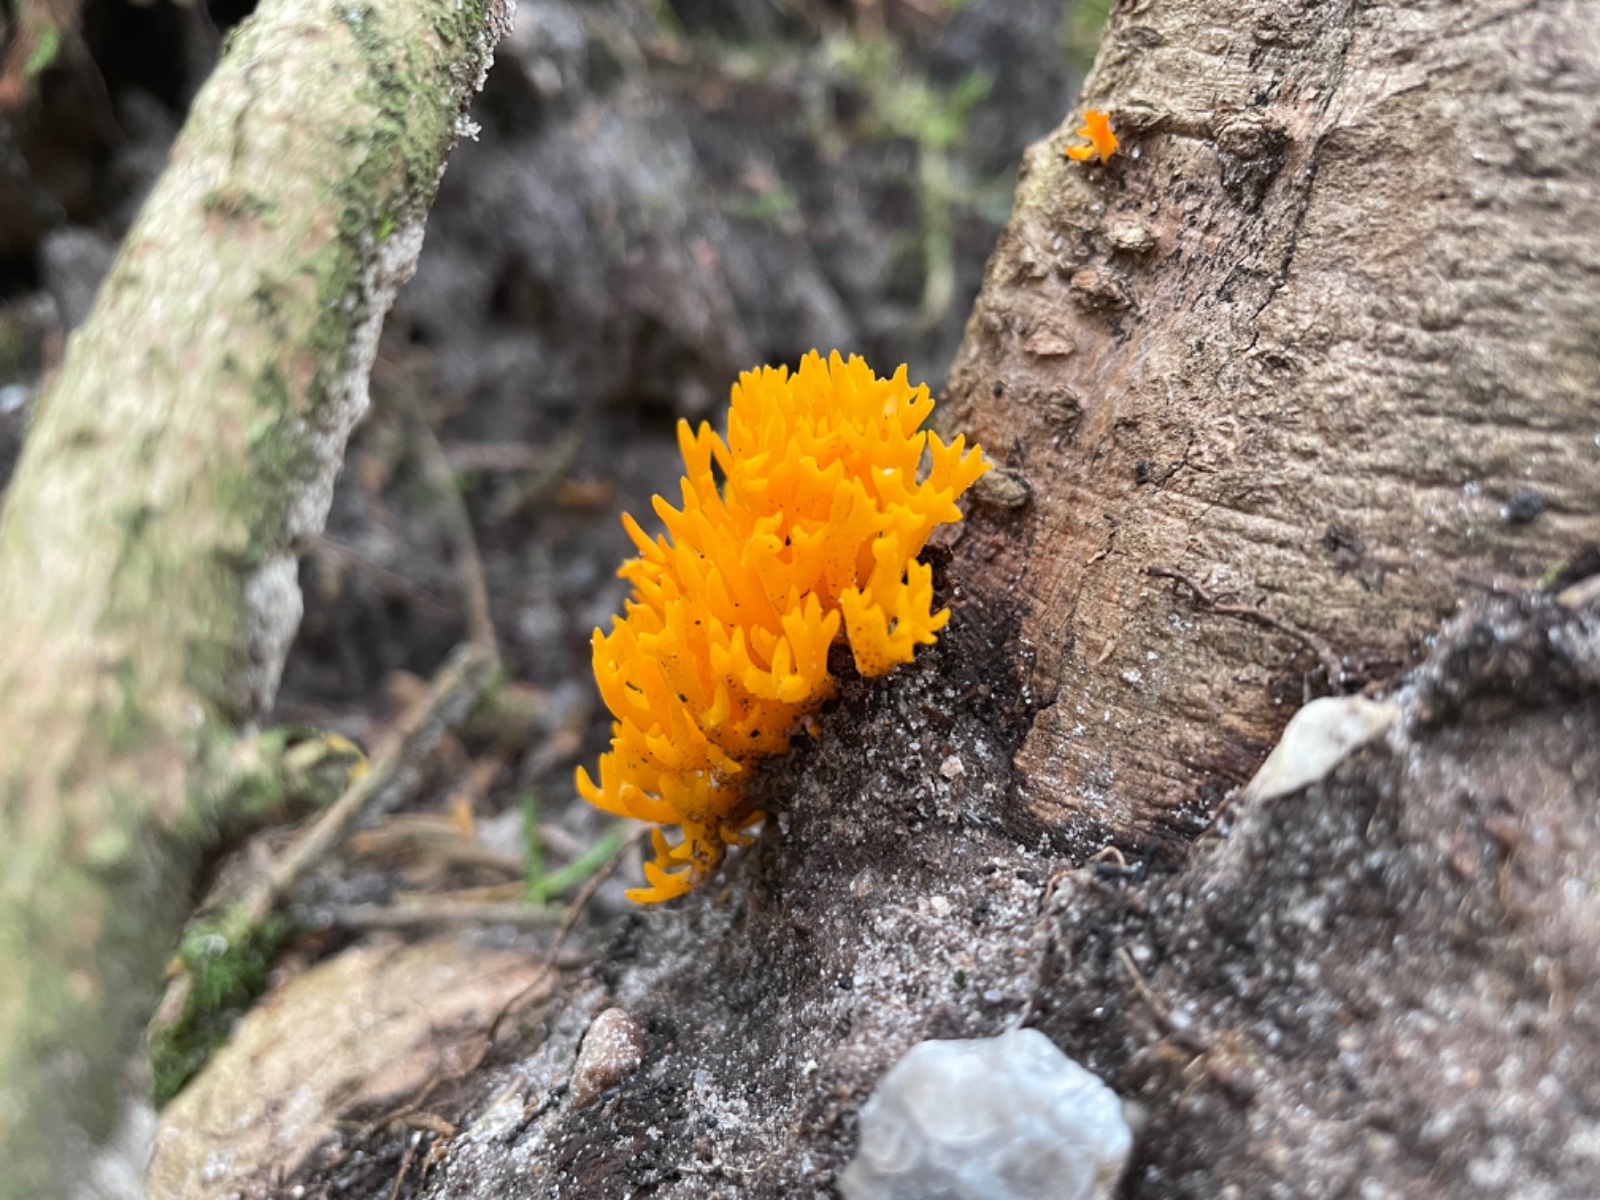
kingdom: Fungi
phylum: Basidiomycota
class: Dacrymycetes
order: Dacrymycetales
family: Dacrymycetaceae
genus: Calocera
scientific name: Calocera viscosa
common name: almindelig guldgaffel
